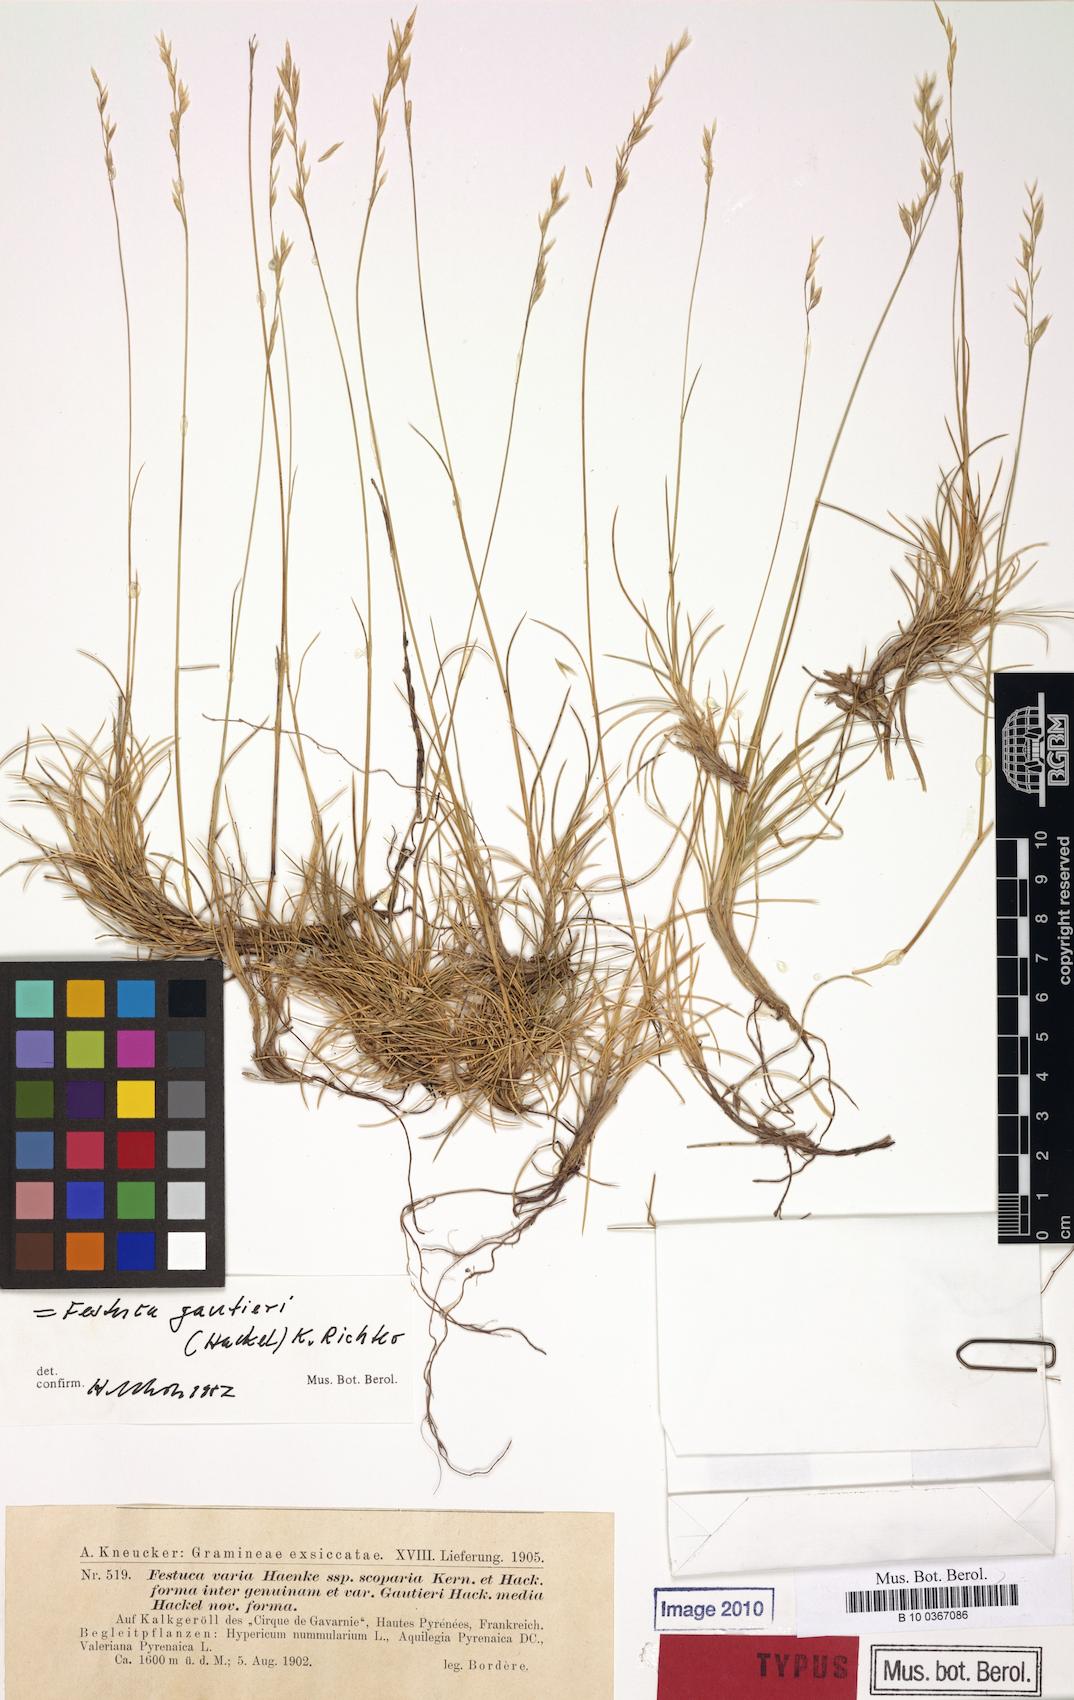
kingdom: Plantae
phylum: Tracheophyta
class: Liliopsida
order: Poales
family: Poaceae
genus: Festuca
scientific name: Festuca varia
